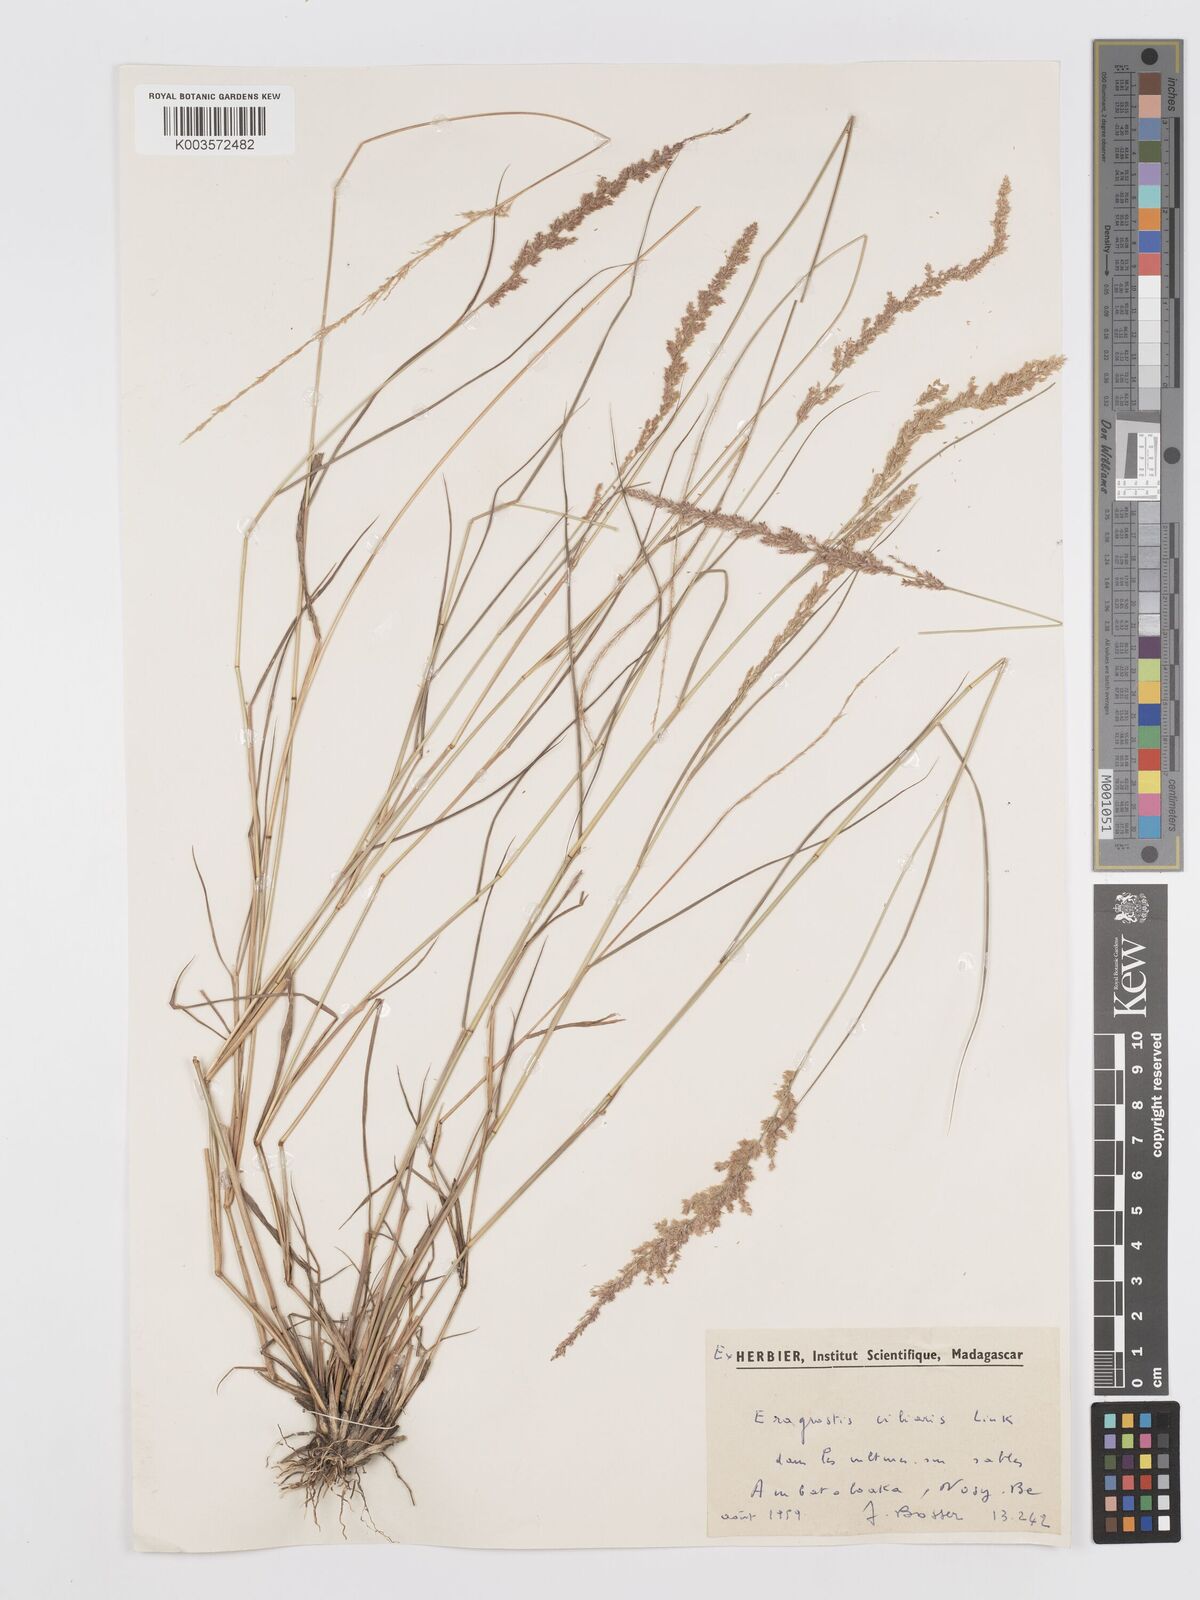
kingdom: Plantae
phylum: Tracheophyta
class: Liliopsida
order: Poales
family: Poaceae
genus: Eragrostis
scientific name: Eragrostis ciliaris
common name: Gophertail lovegrass
